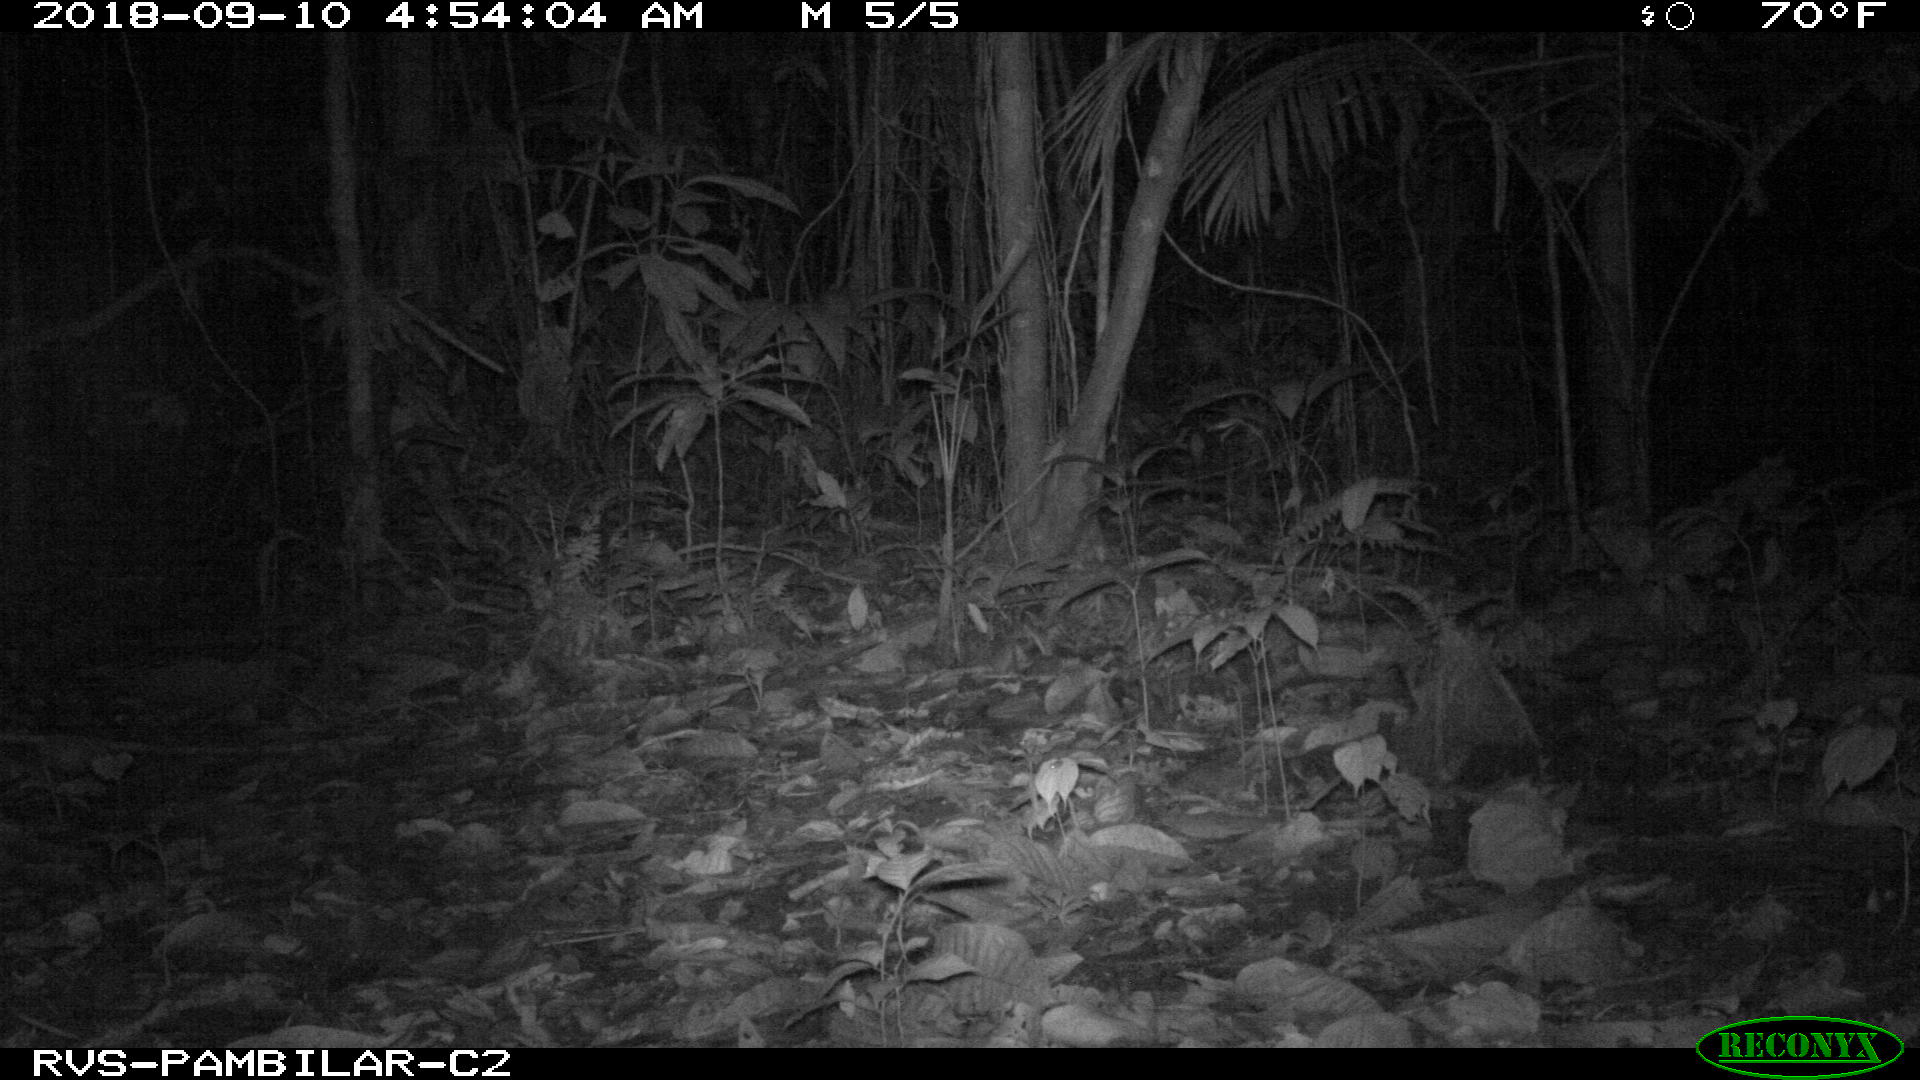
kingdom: Animalia
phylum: Chordata
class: Mammalia
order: Rodentia
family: Cuniculidae
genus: Cuniculus
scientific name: Cuniculus paca
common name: Lowland paca
